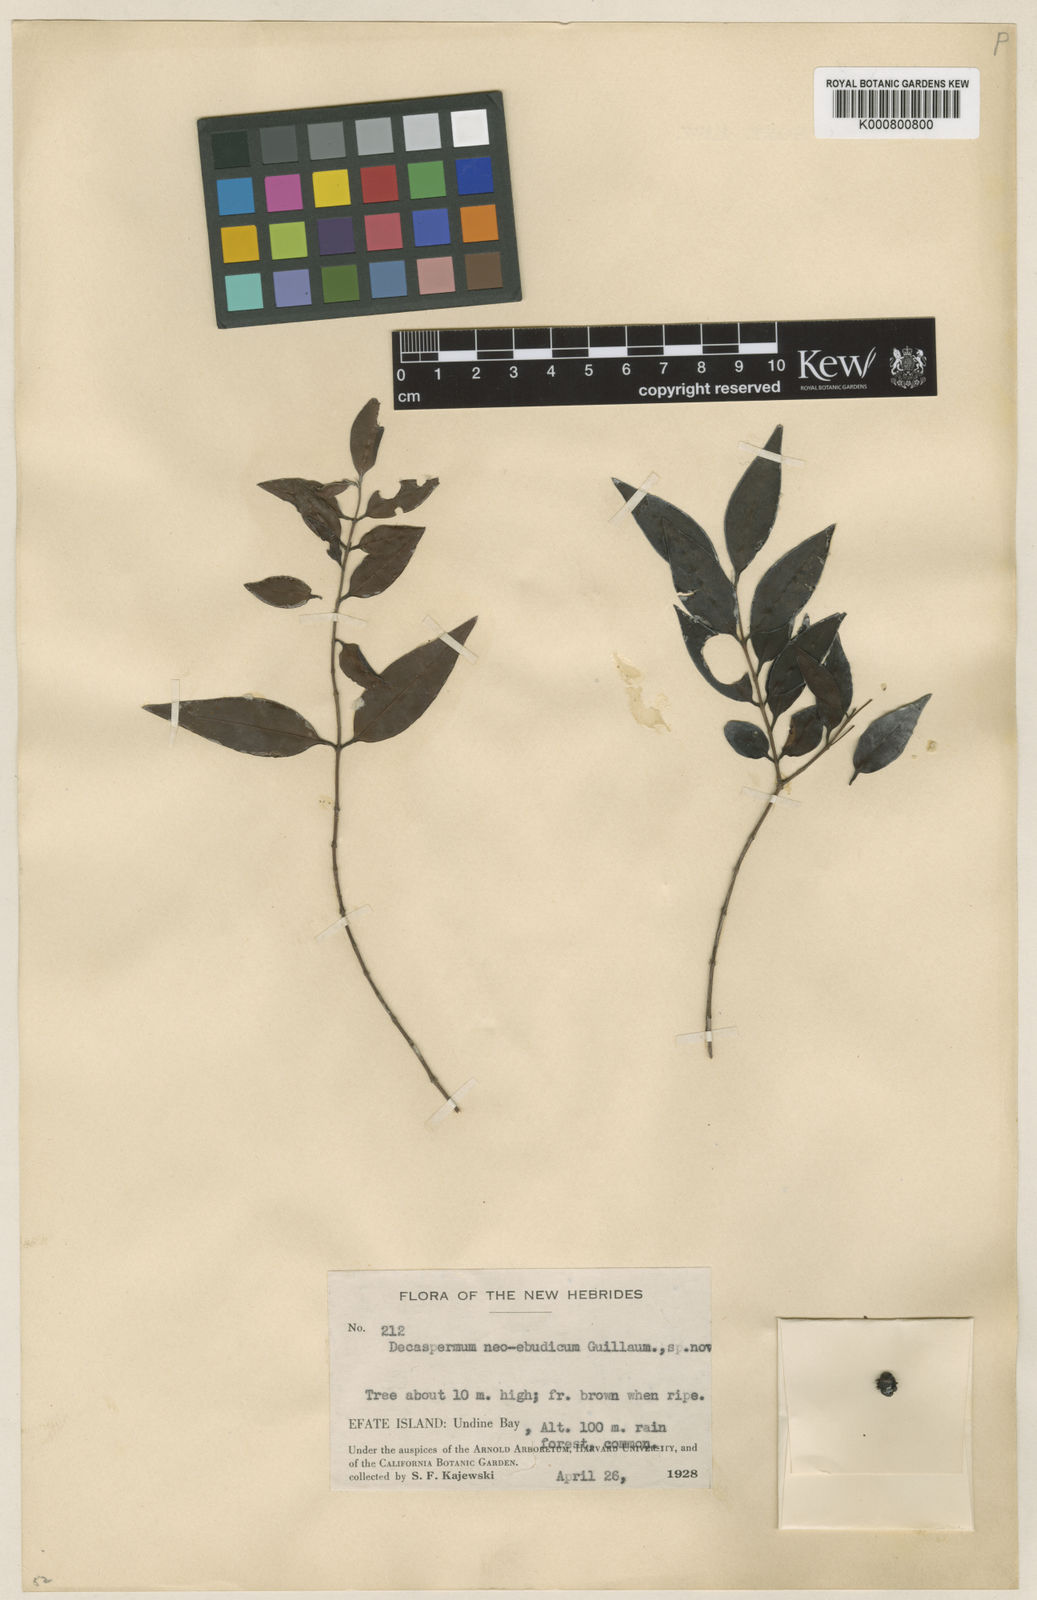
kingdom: Plantae
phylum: Tracheophyta
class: Magnoliopsida
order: Myrtales
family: Myrtaceae
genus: Decaspermum
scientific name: Decaspermum neoebudicum
